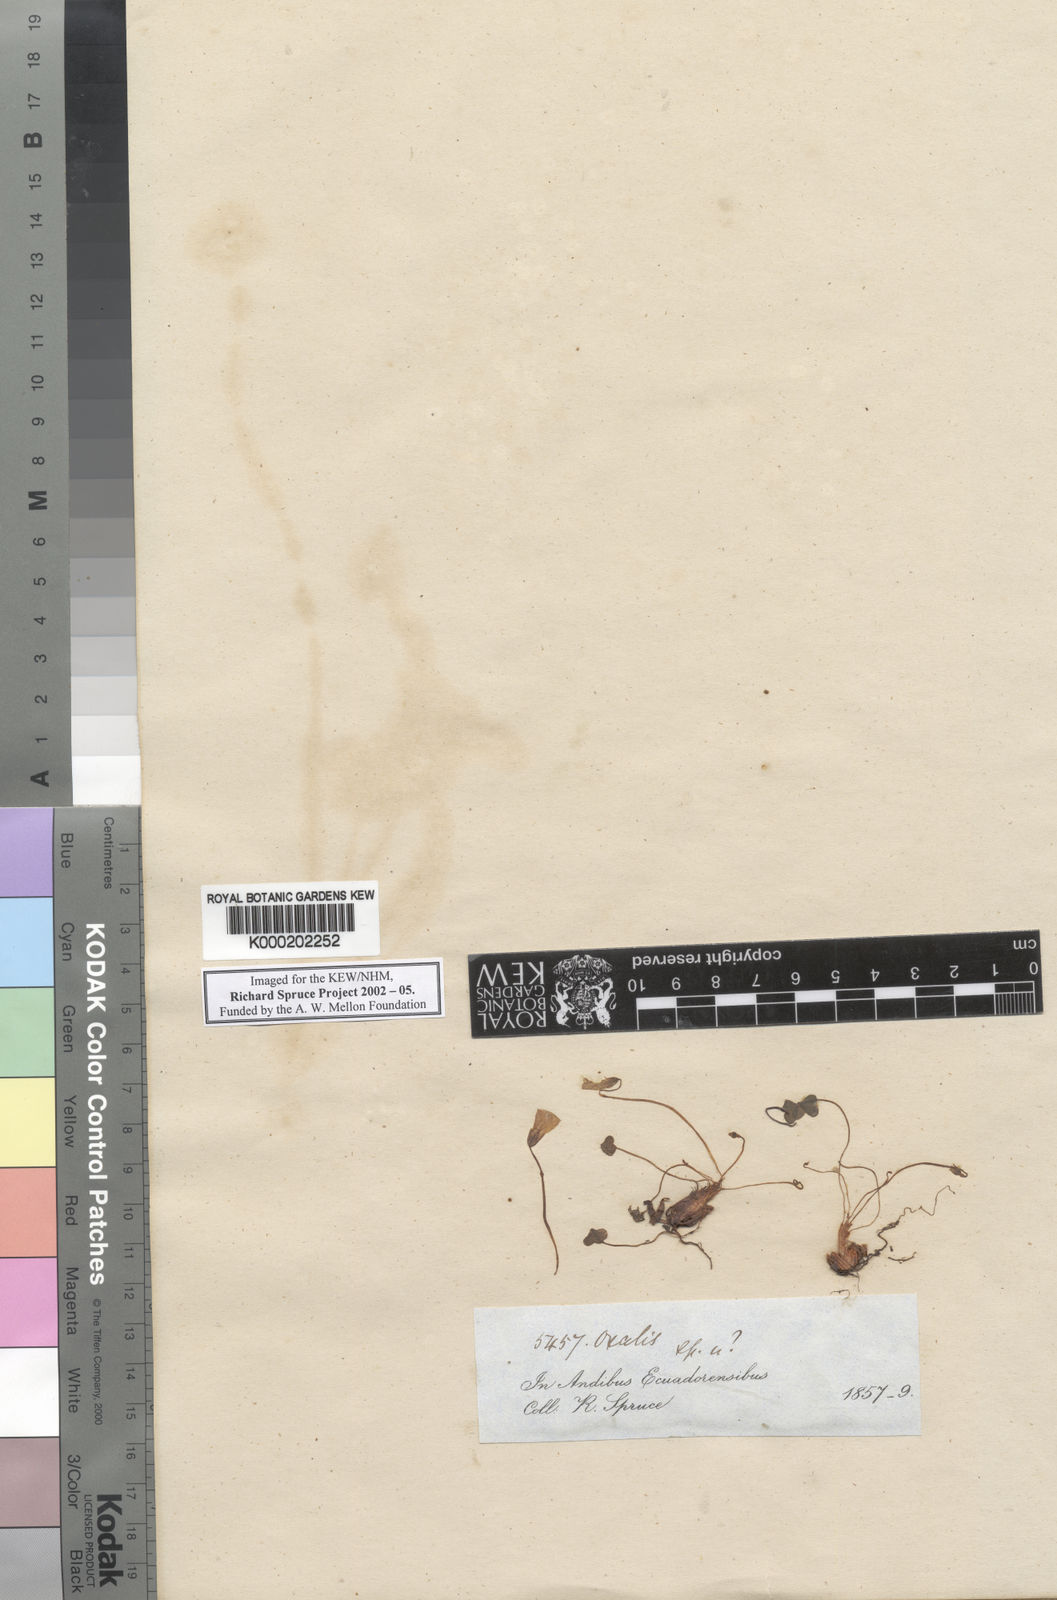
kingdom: Plantae
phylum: Tracheophyta
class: Magnoliopsida
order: Oxalidales
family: Oxalidaceae
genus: Oxalis
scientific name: Oxalis
